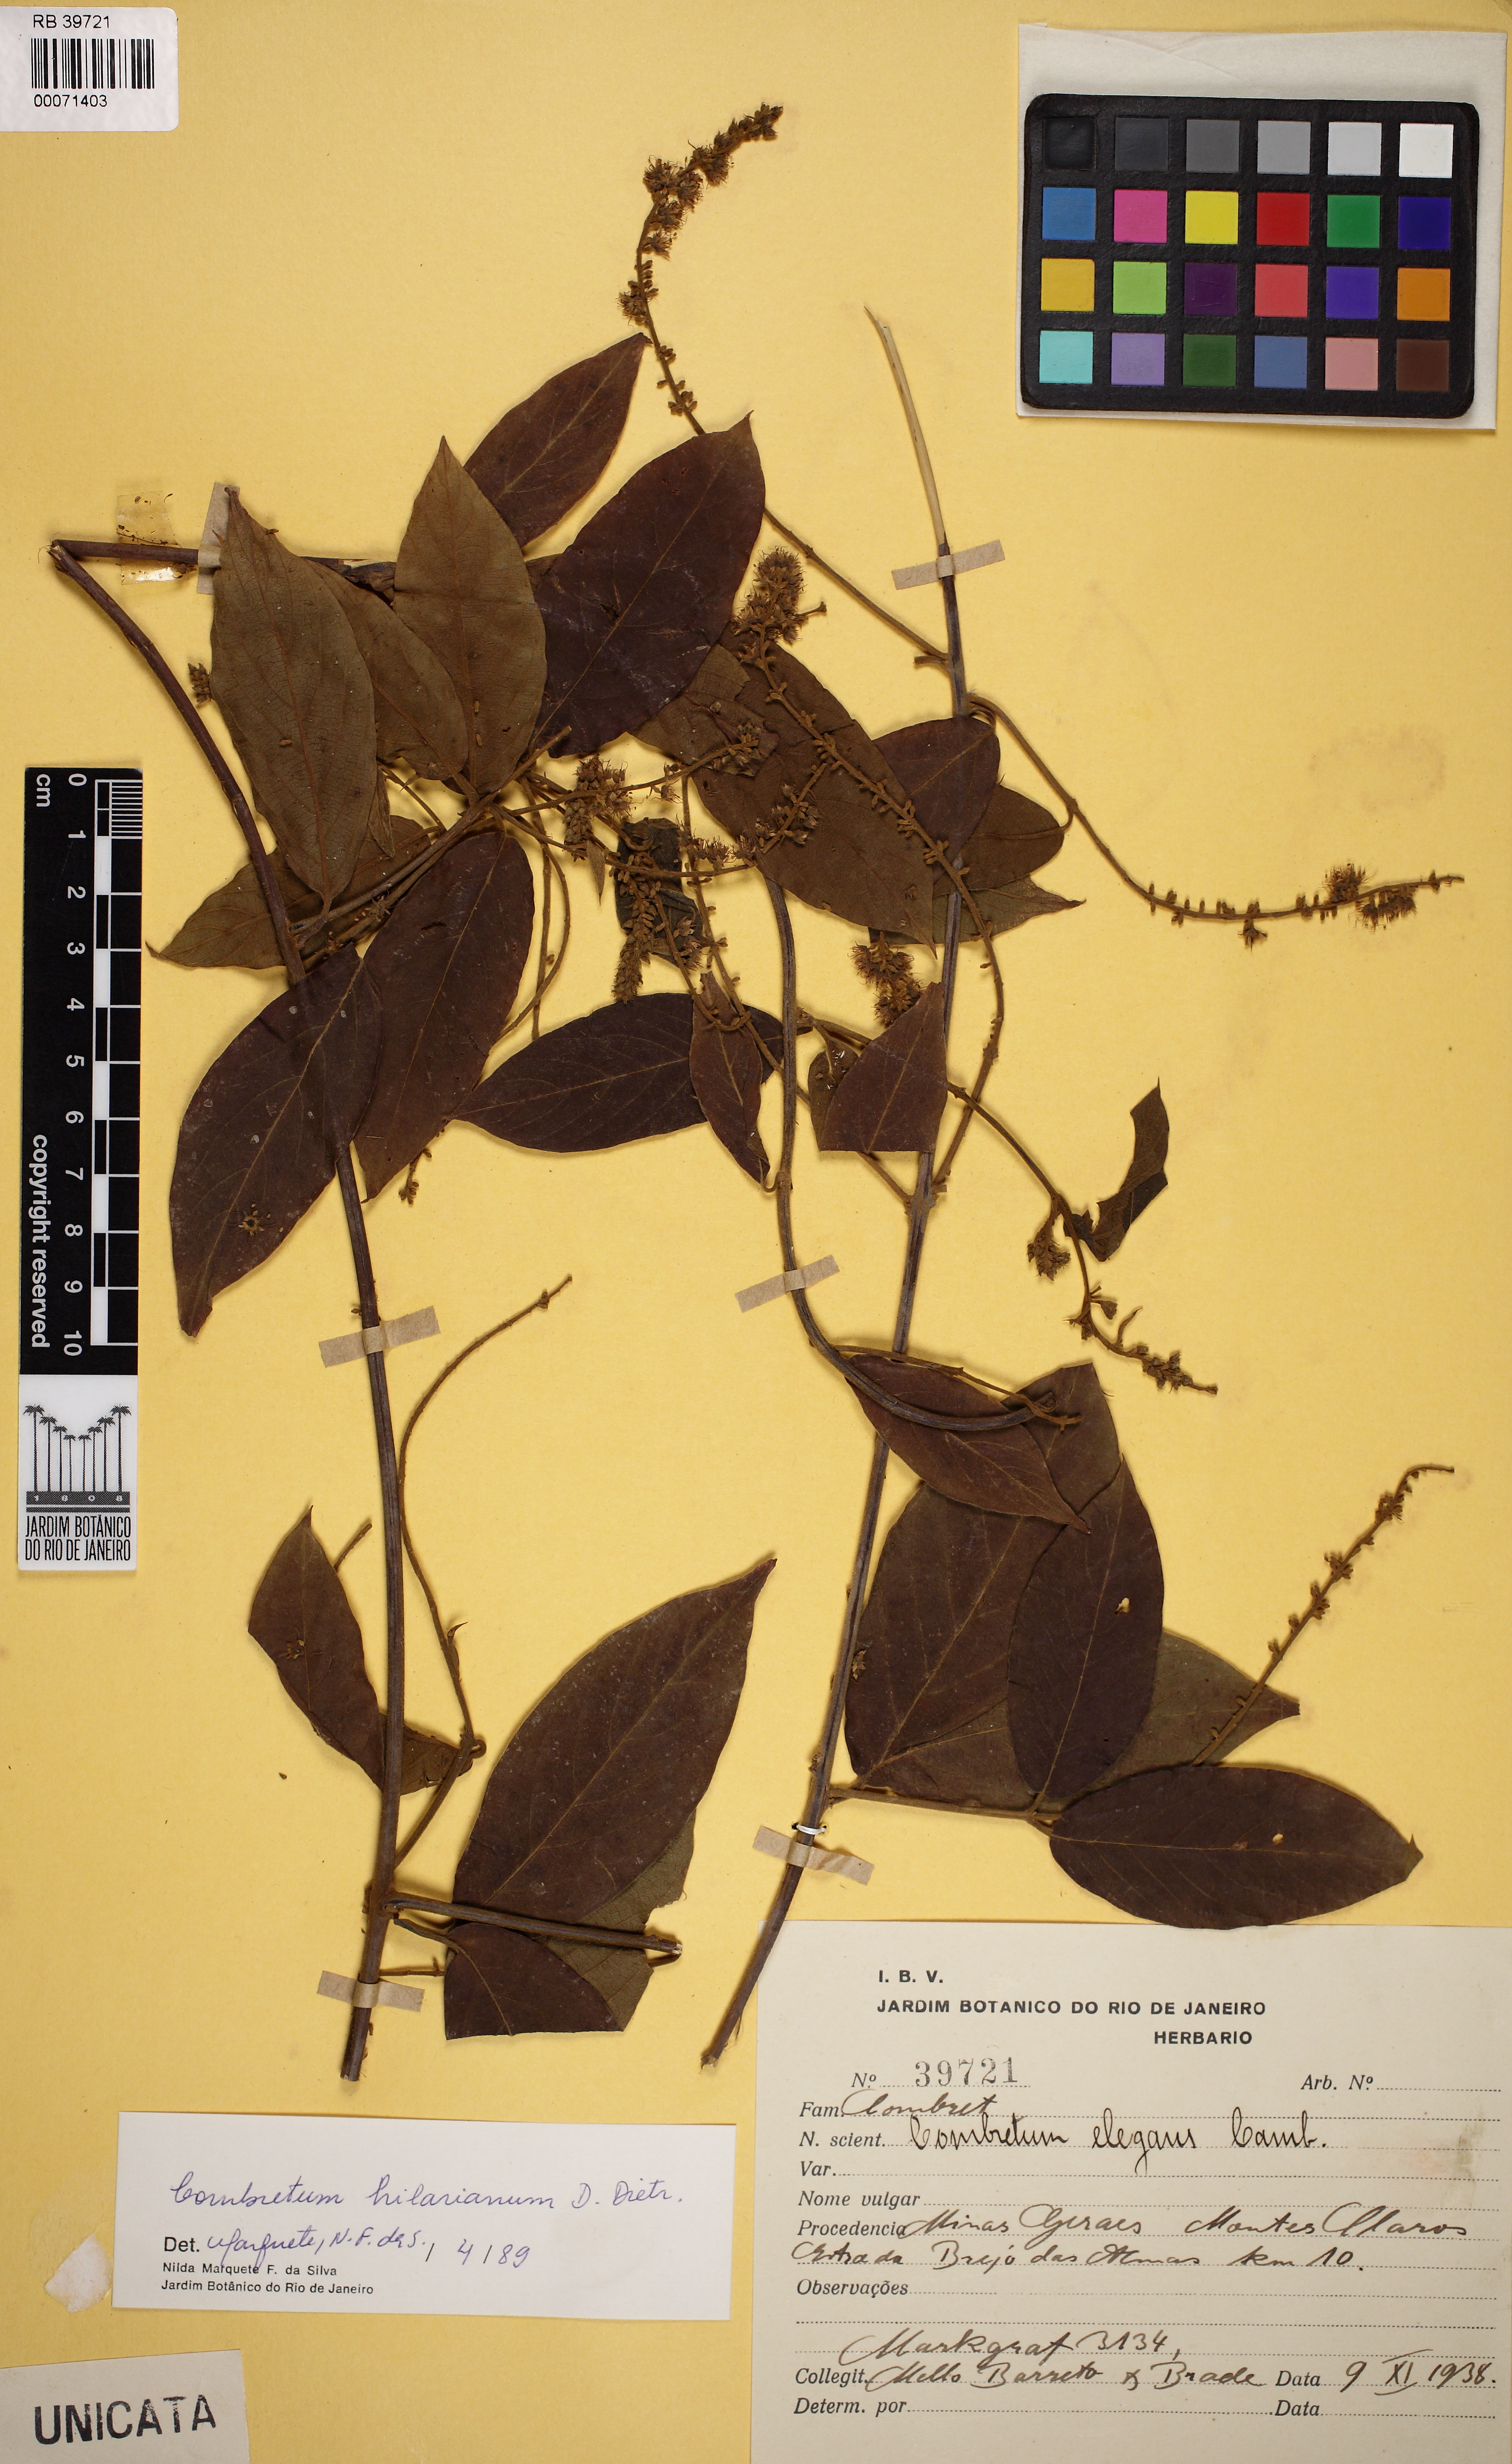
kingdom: Plantae
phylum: Tracheophyta
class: Magnoliopsida
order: Myrtales
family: Combretaceae
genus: Combretum
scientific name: Combretum hilarianum
